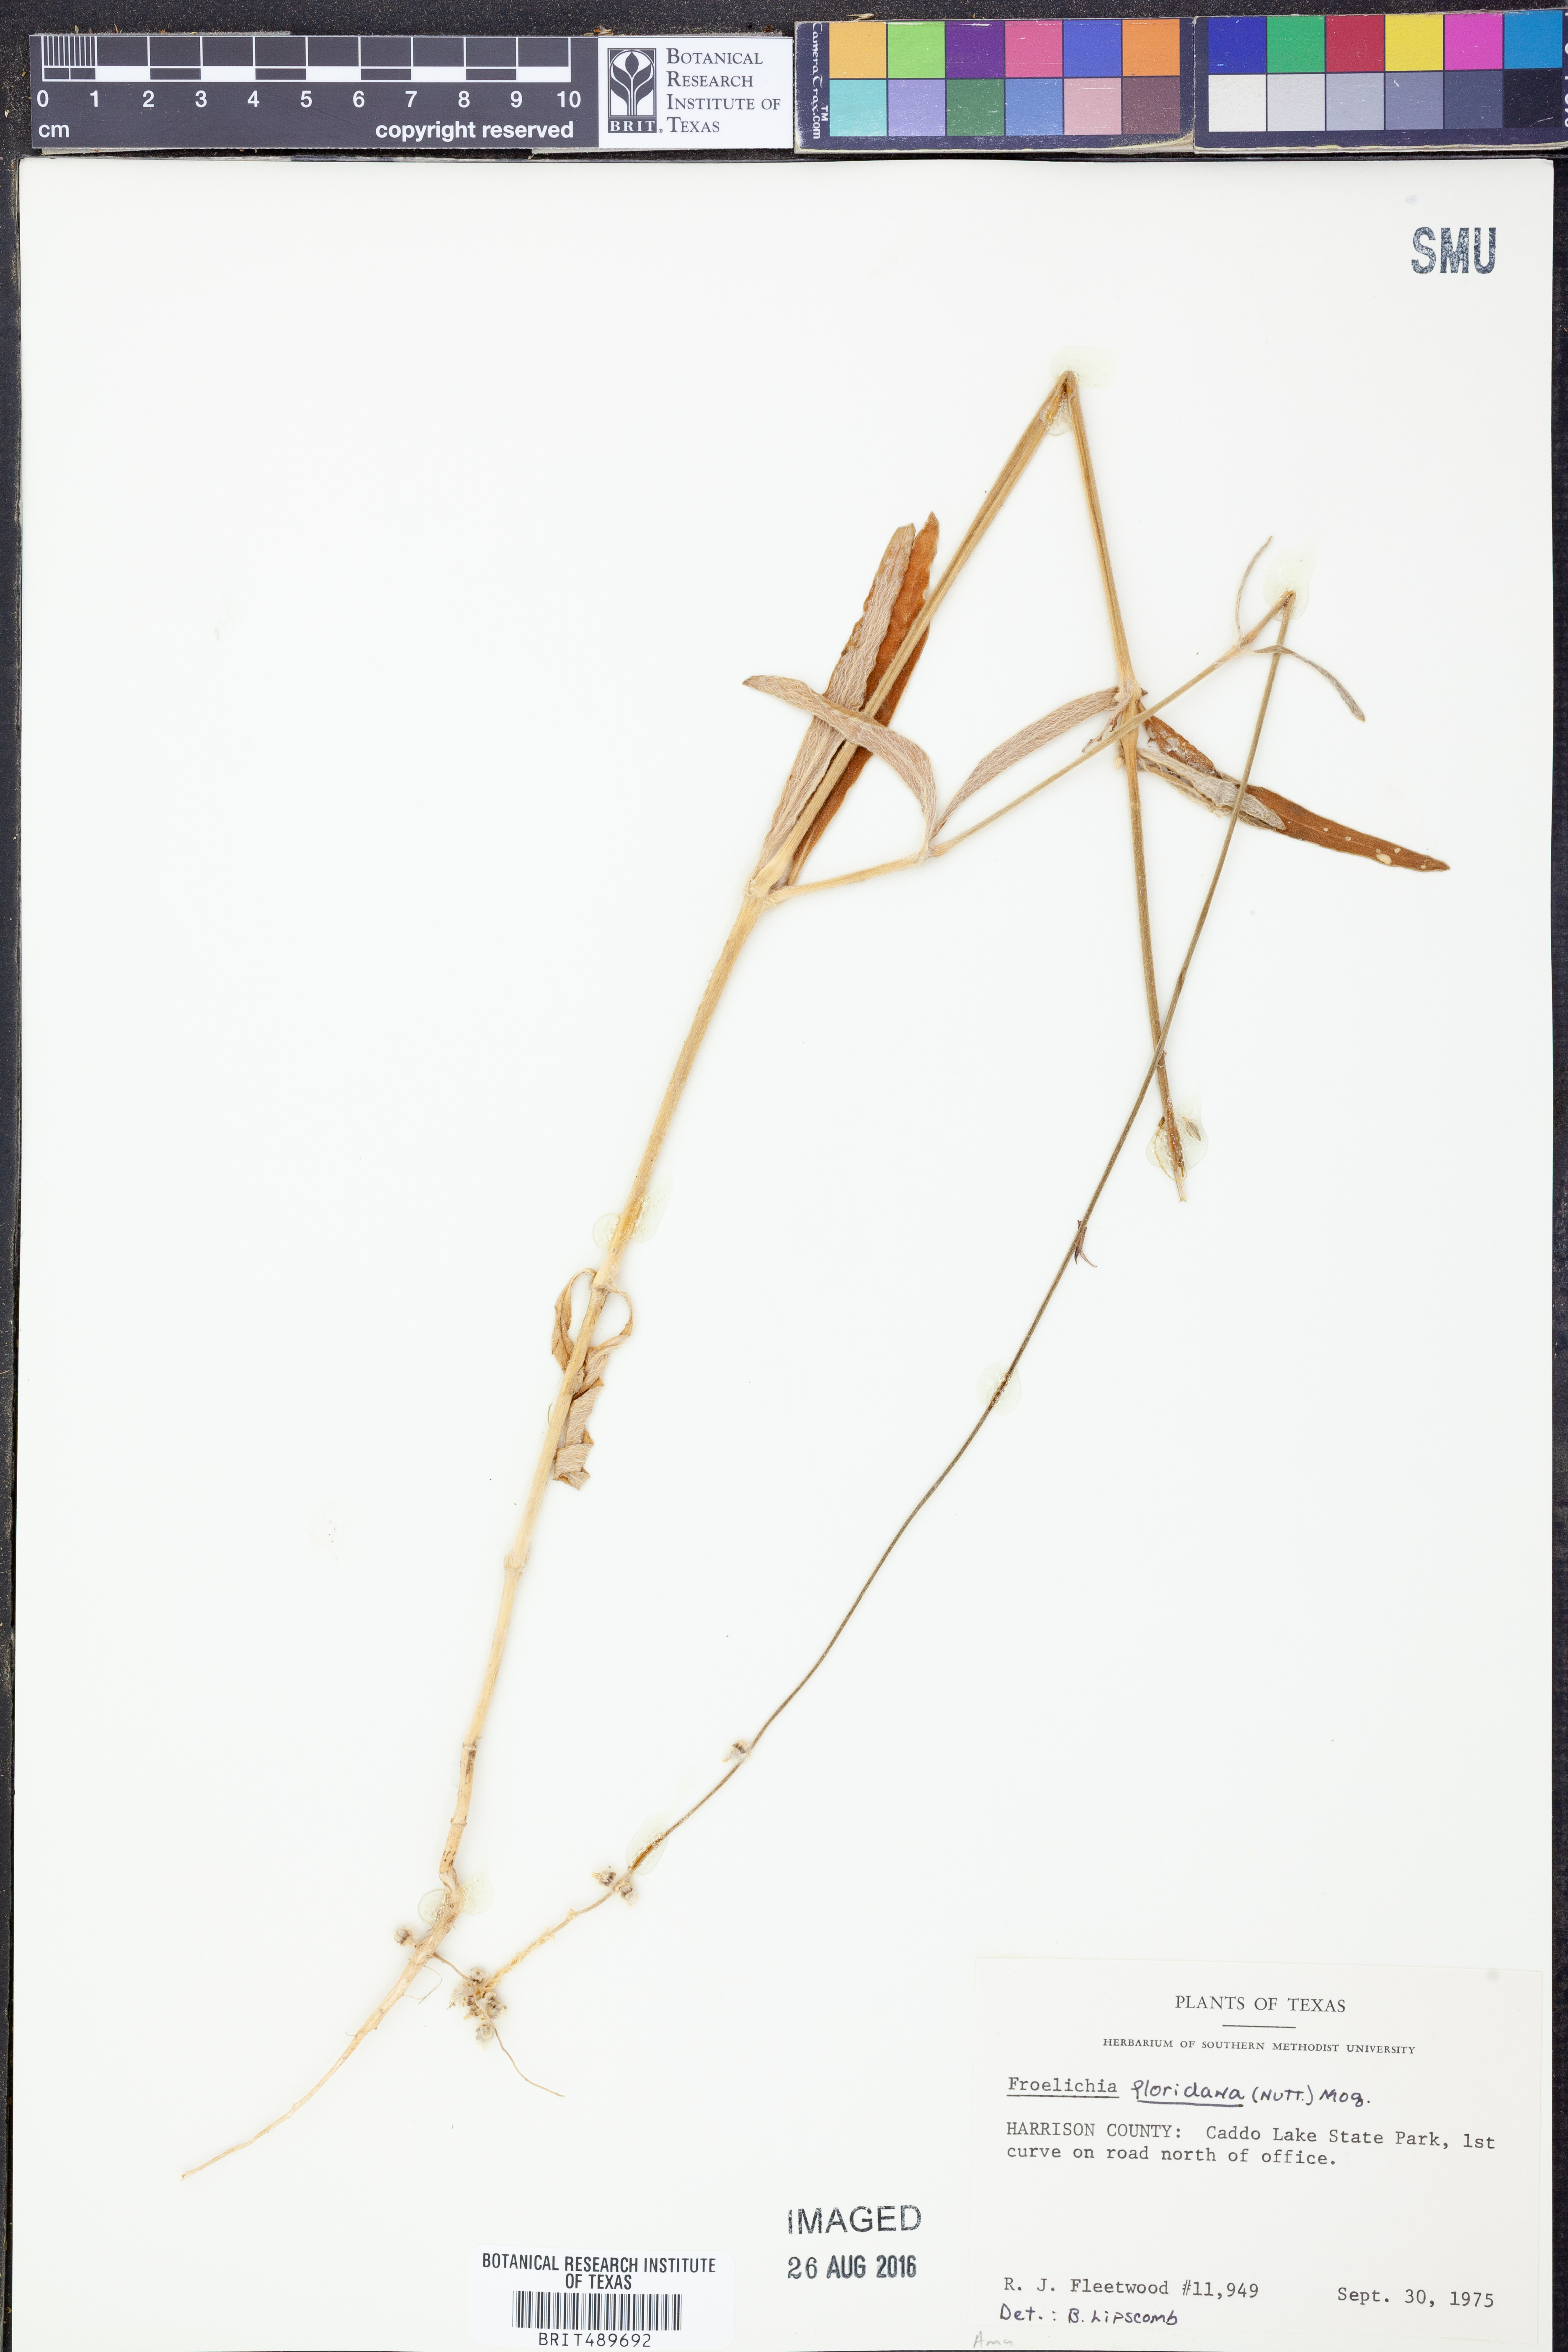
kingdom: Plantae
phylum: Tracheophyta
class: Magnoliopsida
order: Caryophyllales
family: Amaranthaceae
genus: Froelichia
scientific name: Froelichia floridana
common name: Florida snake-cotton
